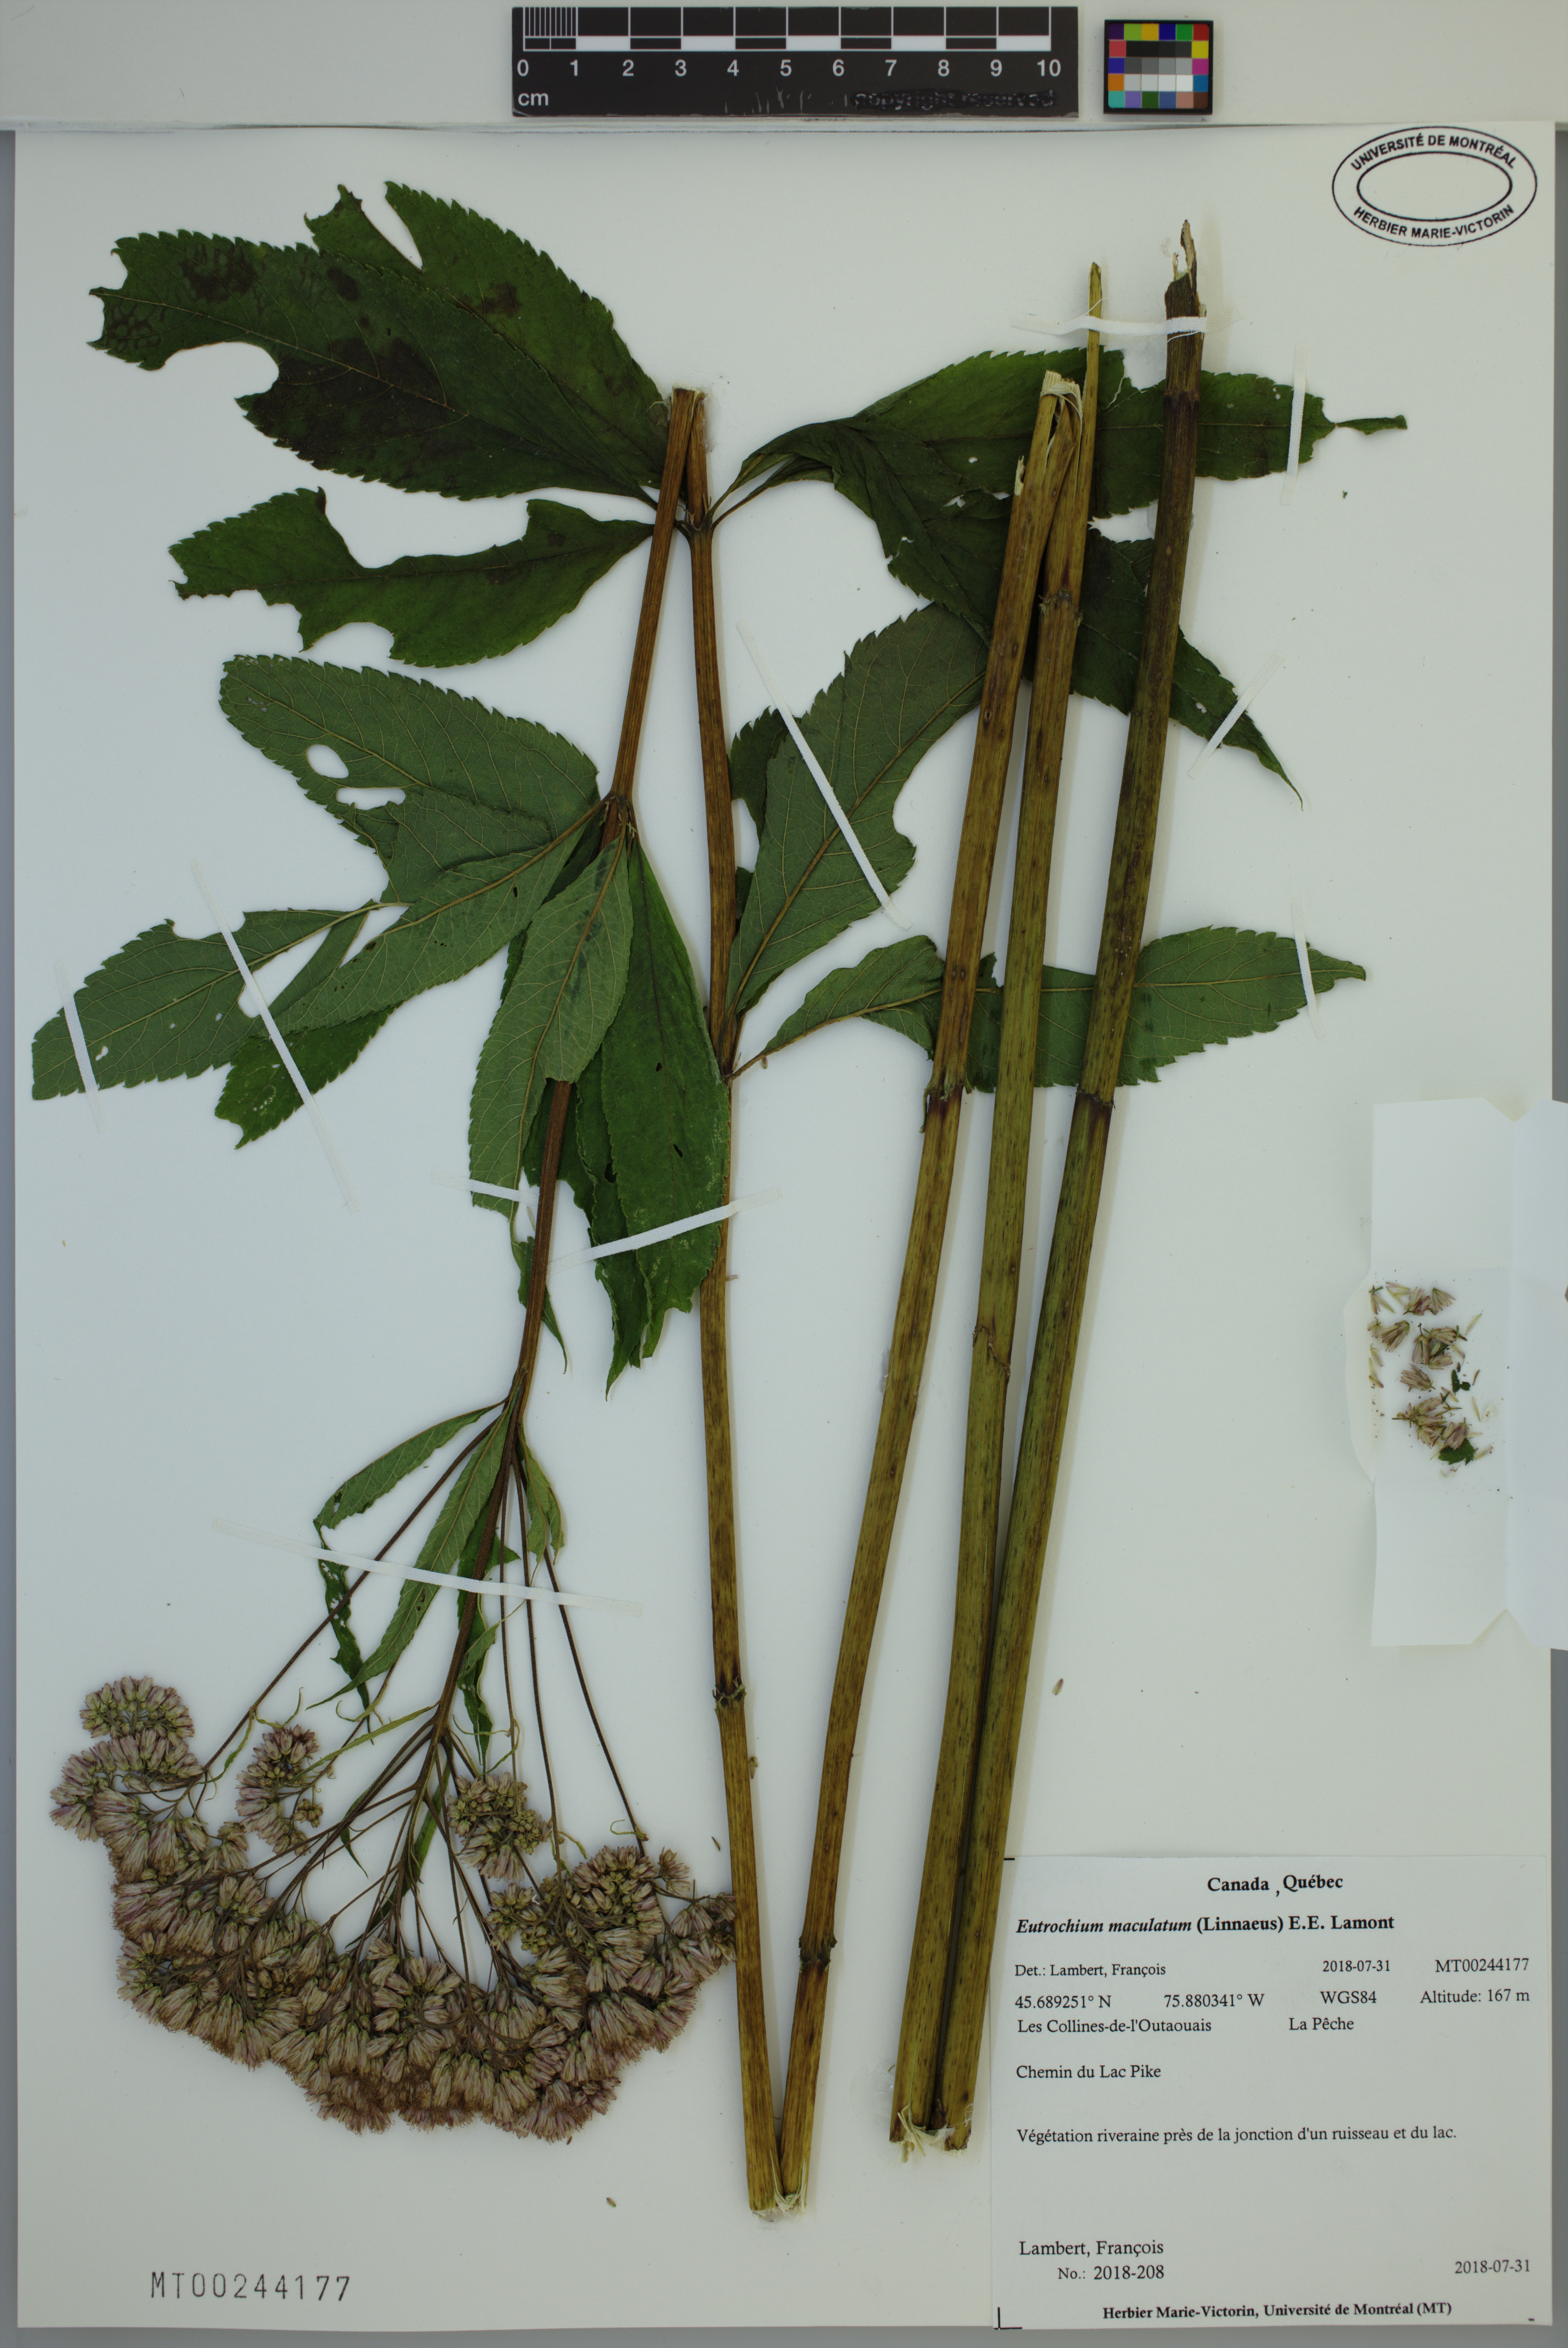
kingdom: Plantae
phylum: Tracheophyta
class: Magnoliopsida
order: Asterales
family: Asteraceae
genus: Eutrochium
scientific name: Eutrochium maculatum
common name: Spotted joe pye weed
